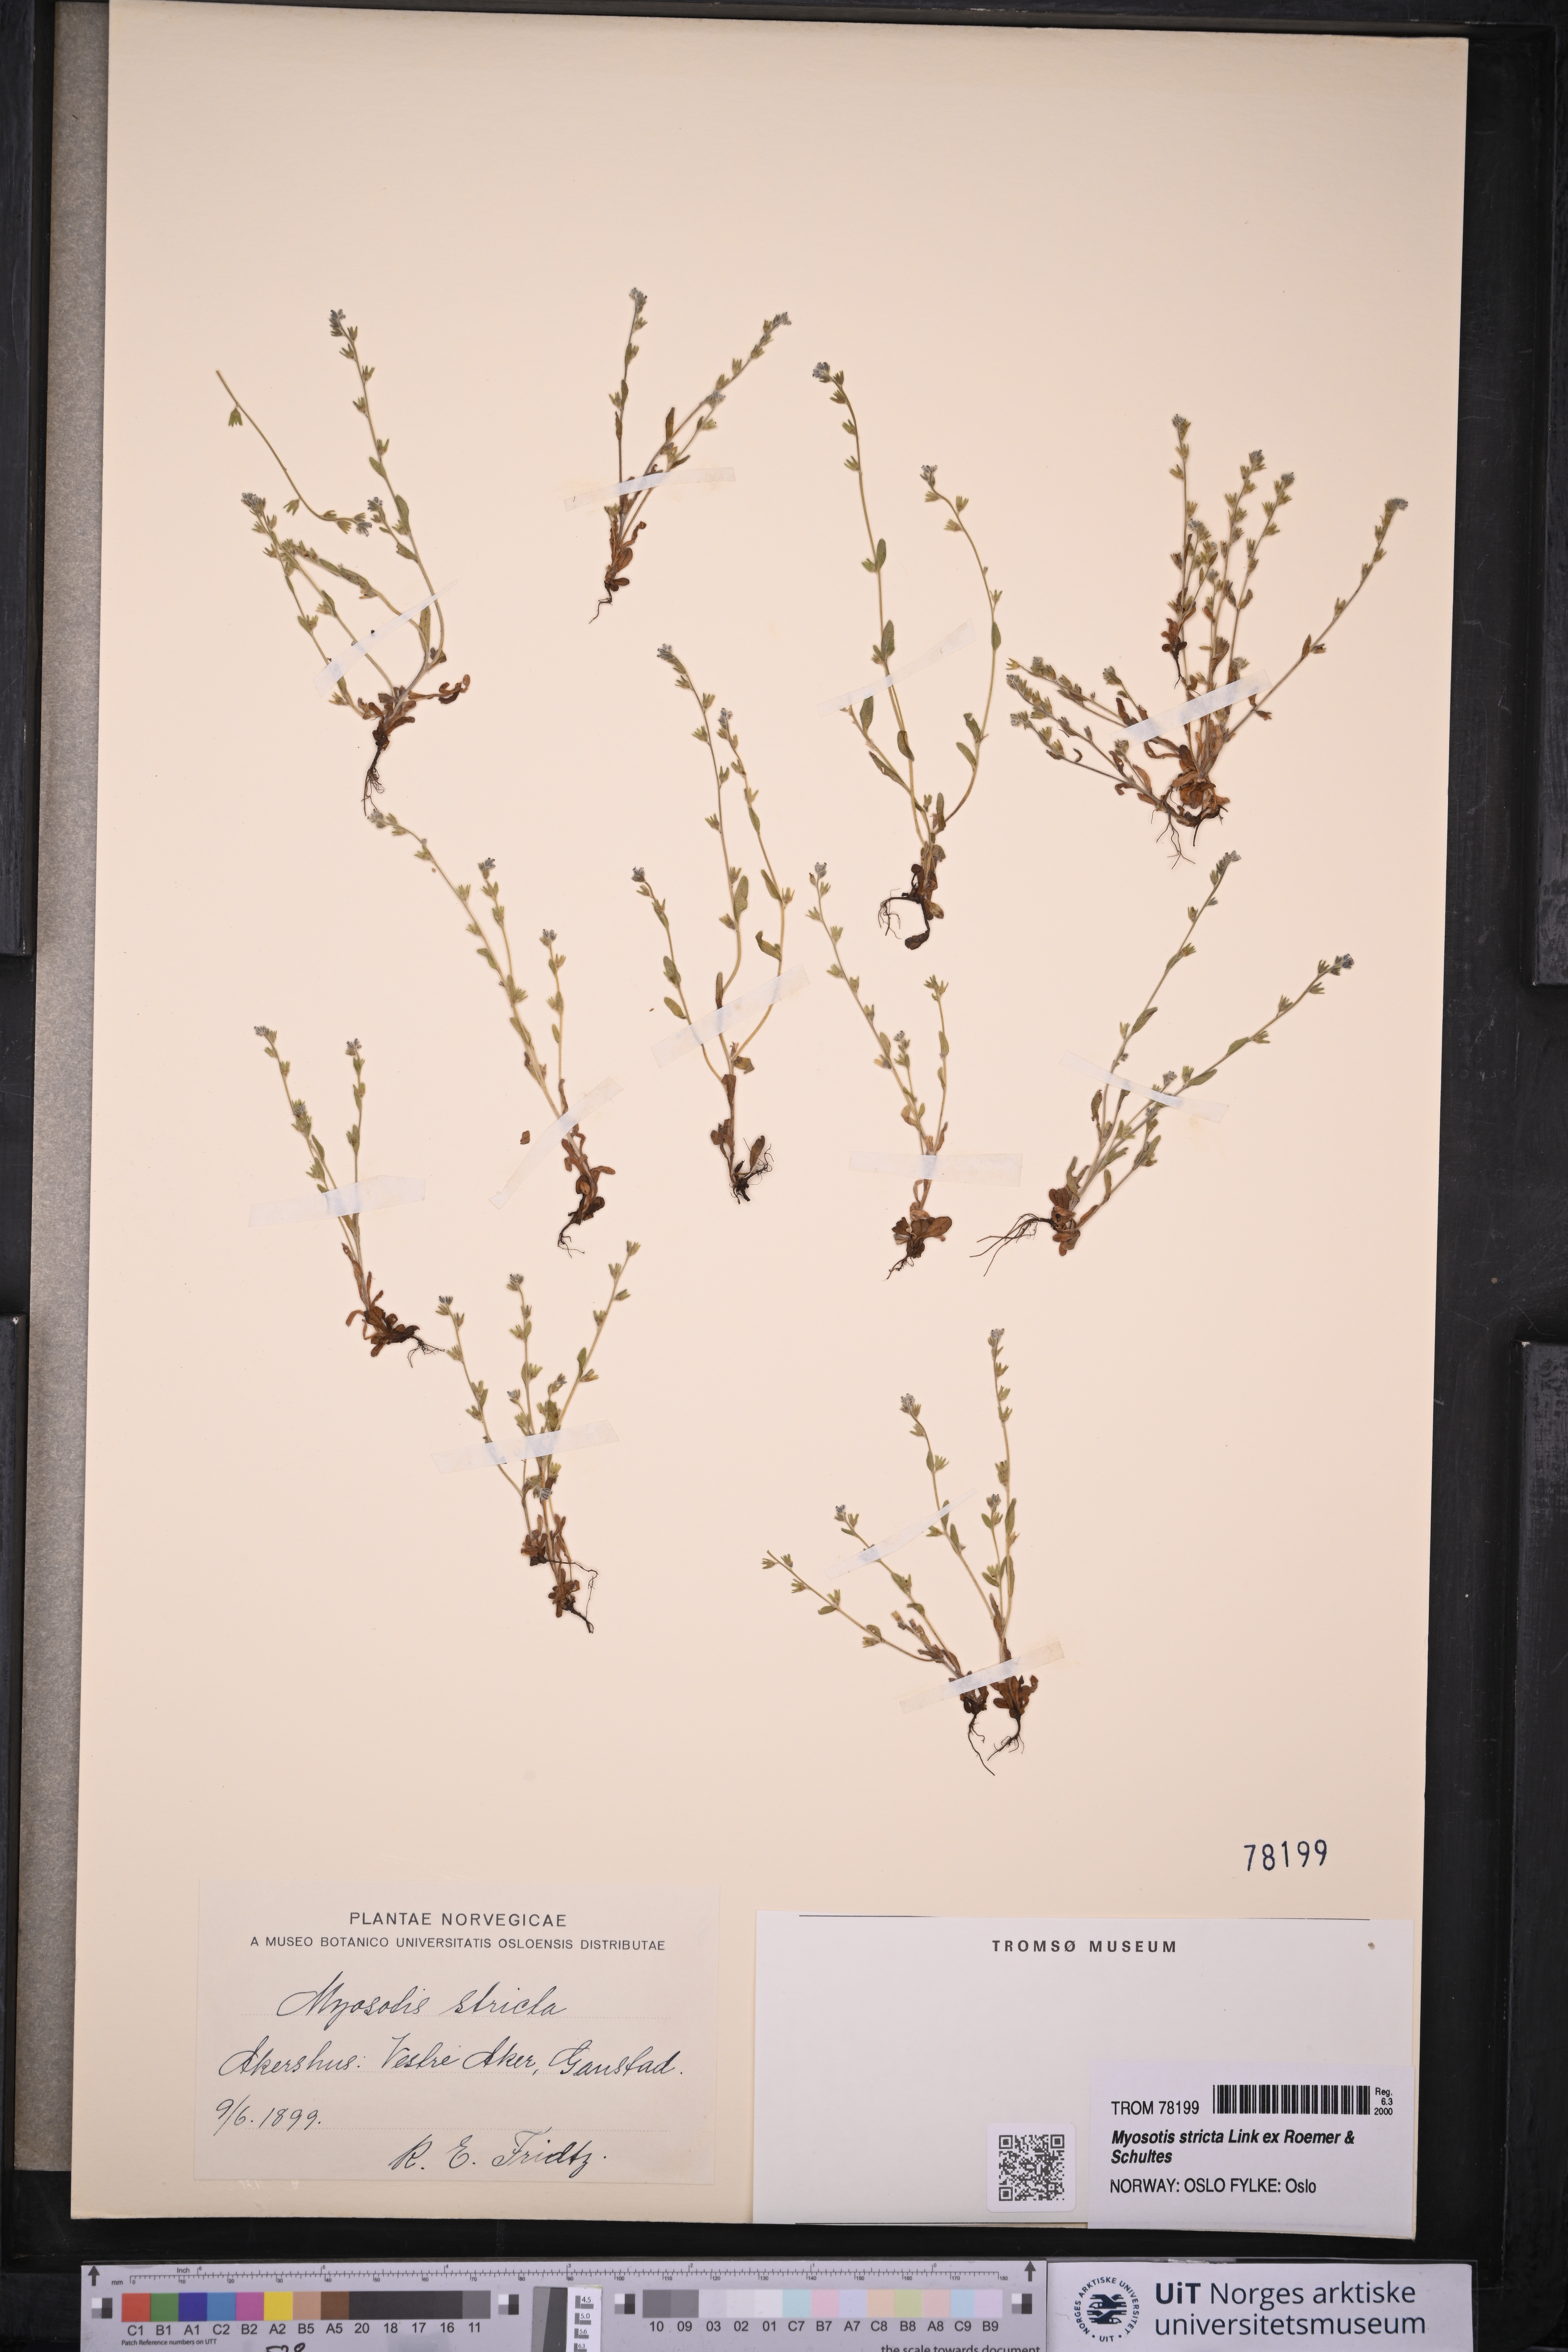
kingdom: Plantae
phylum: Tracheophyta
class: Magnoliopsida
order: Boraginales
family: Boraginaceae
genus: Myosotis
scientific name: Myosotis stricta
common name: Strict forget-me-not
